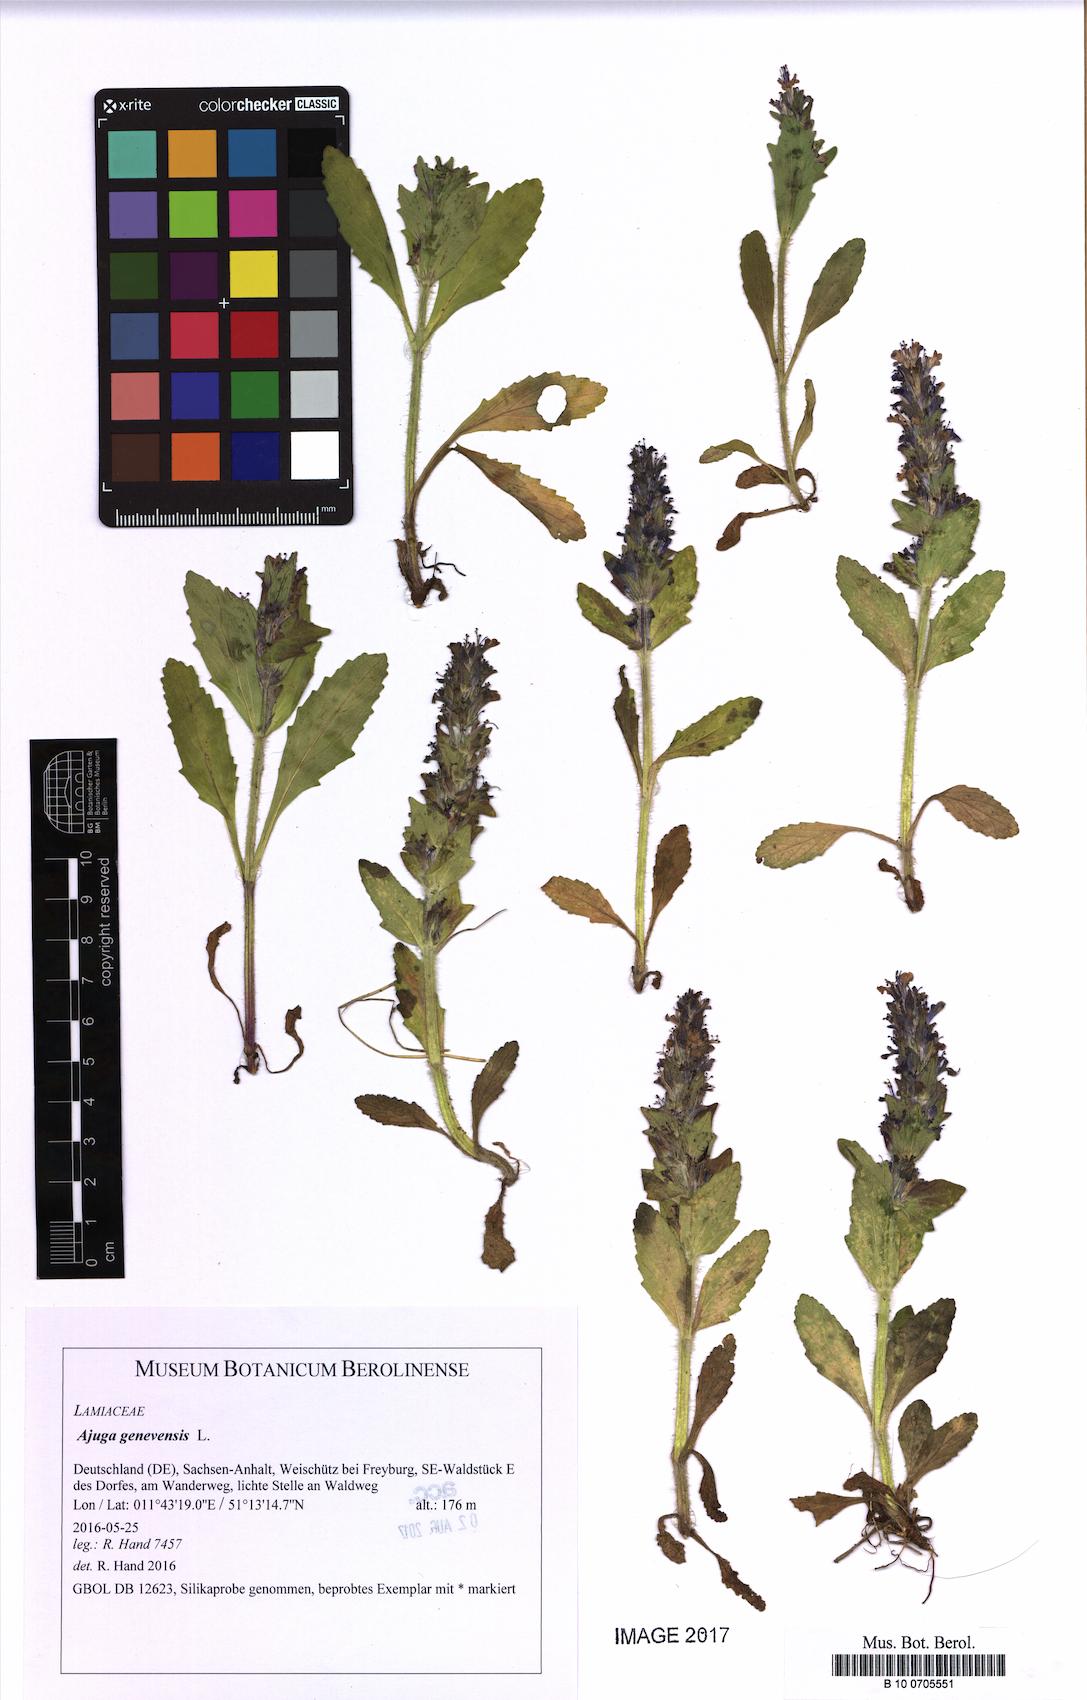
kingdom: Plantae
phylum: Tracheophyta
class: Magnoliopsida
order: Lamiales
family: Lamiaceae
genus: Ajuga
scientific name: Ajuga genevensis
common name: Blue bugle
